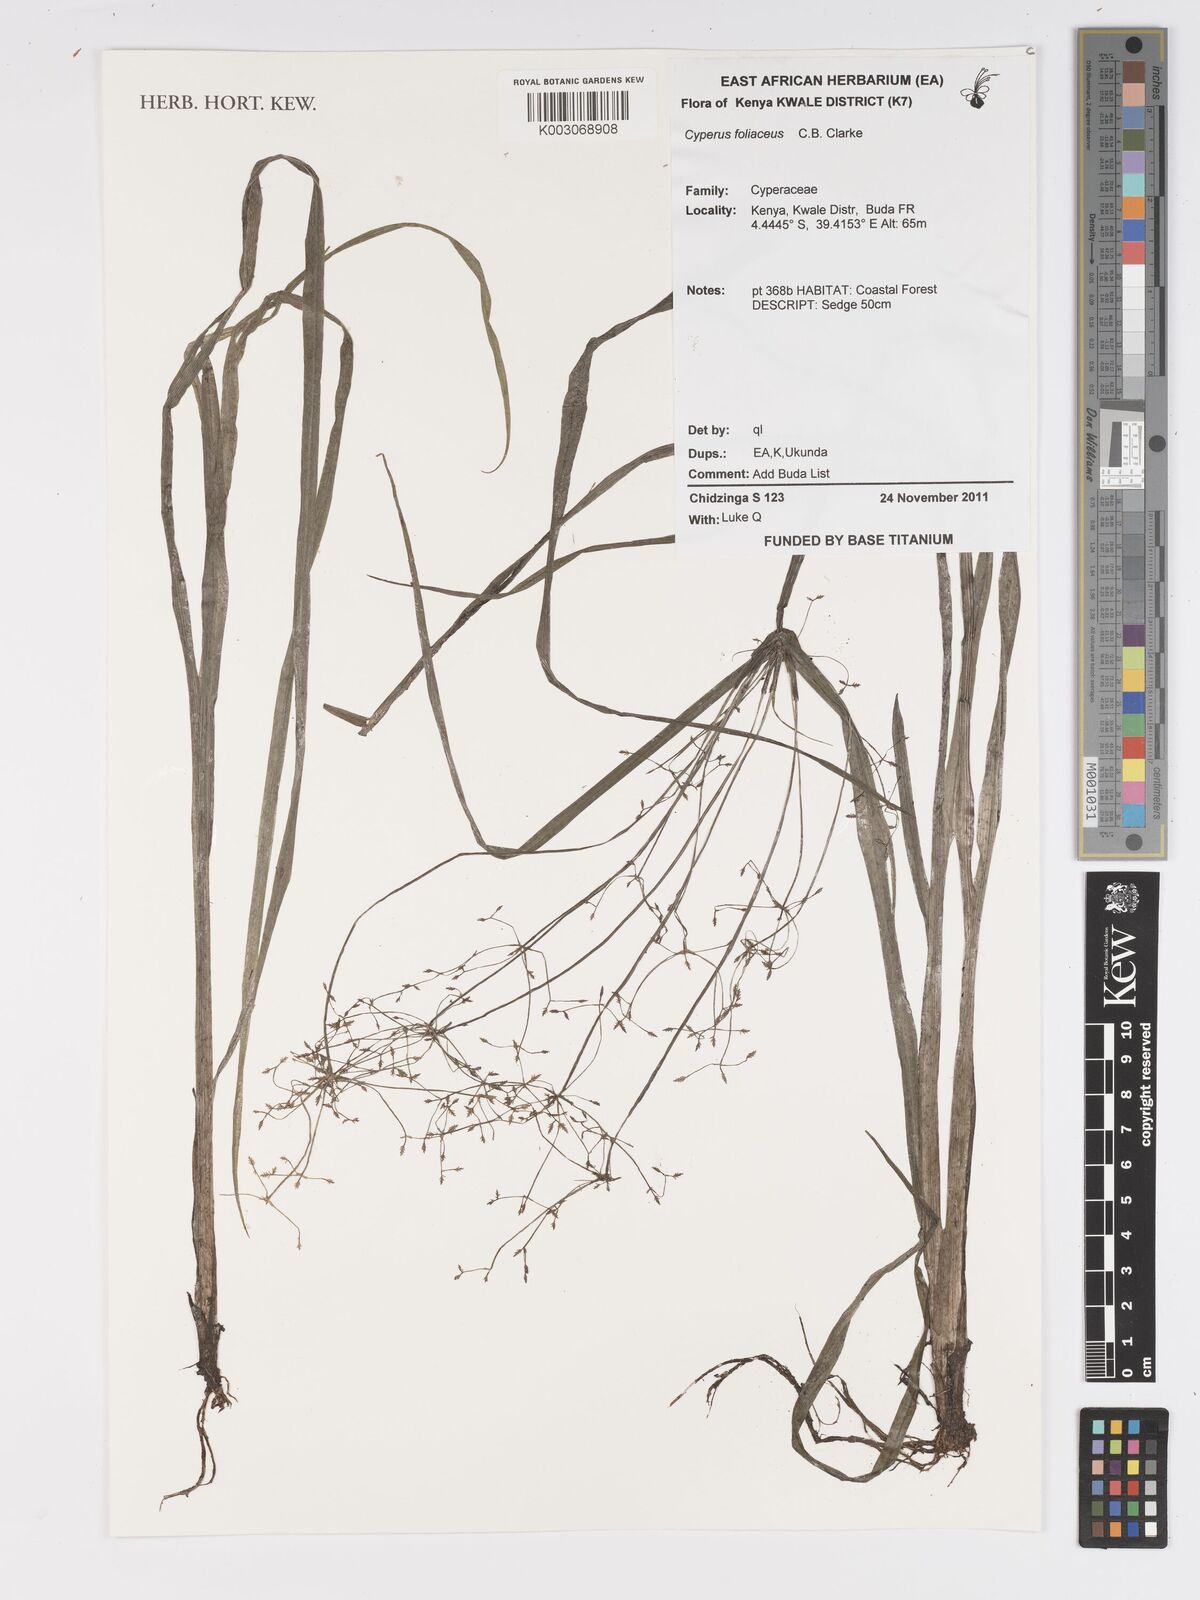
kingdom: Plantae
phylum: Tracheophyta
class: Liliopsida
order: Poales
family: Cyperaceae
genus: Cyperus
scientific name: Cyperus foliaceus
